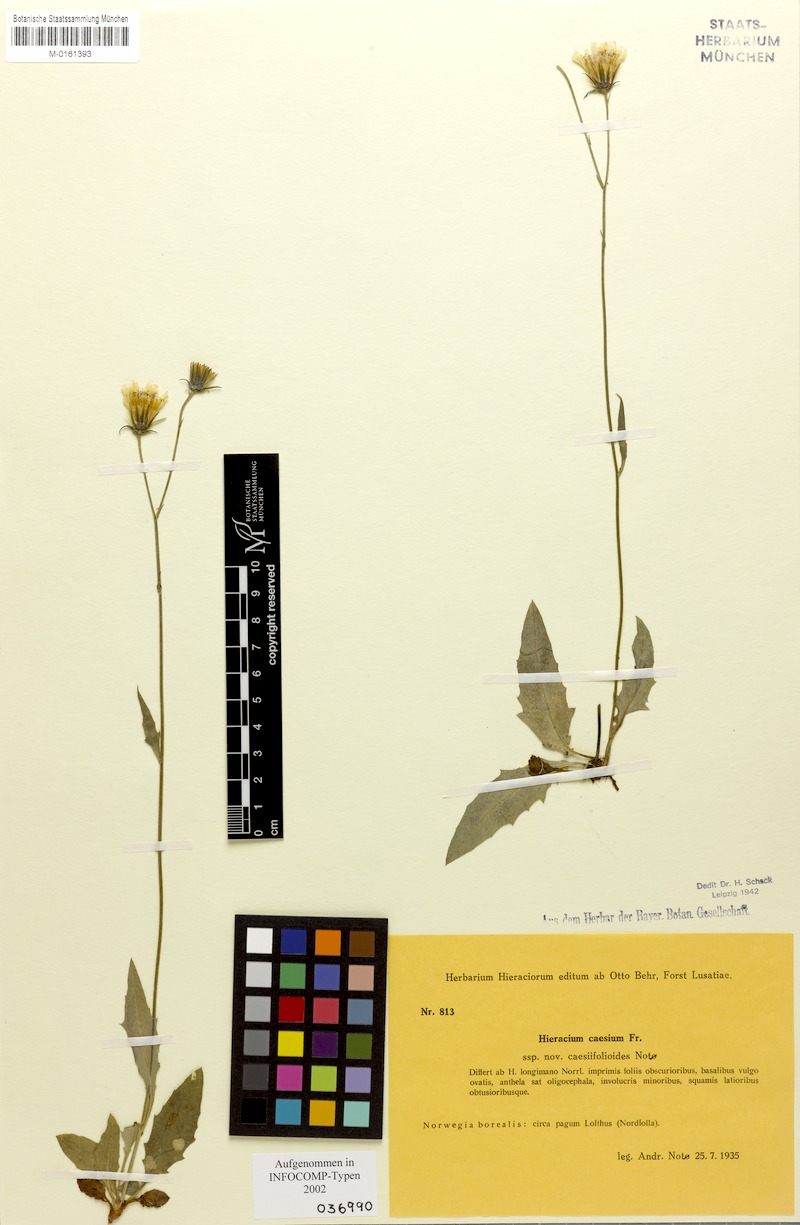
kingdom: Plantae
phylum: Tracheophyta
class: Magnoliopsida
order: Asterales
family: Asteraceae
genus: Hieracium
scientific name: Hieracium caesium
